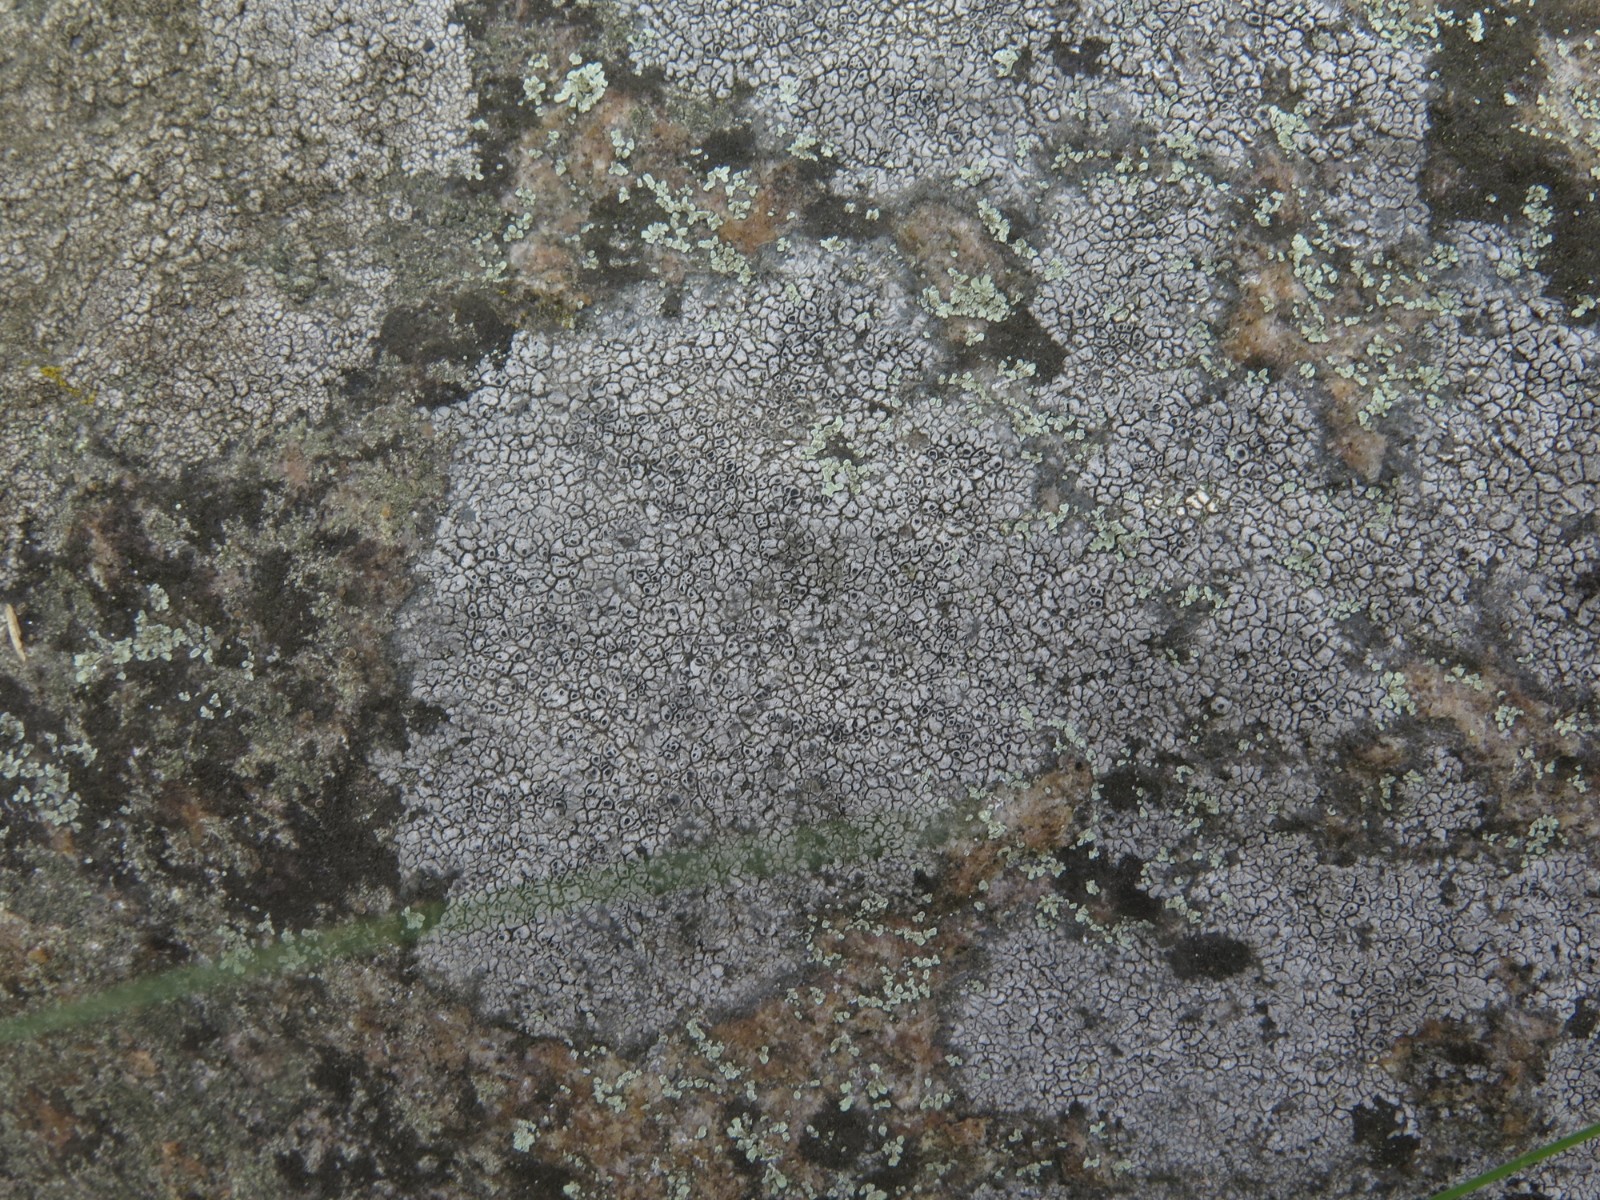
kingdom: Fungi
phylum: Ascomycota
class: Lecanoromycetes
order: Pertusariales
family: Megasporaceae
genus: Aspicilia
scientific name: Aspicilia cinerea
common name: grå hulskivelav
